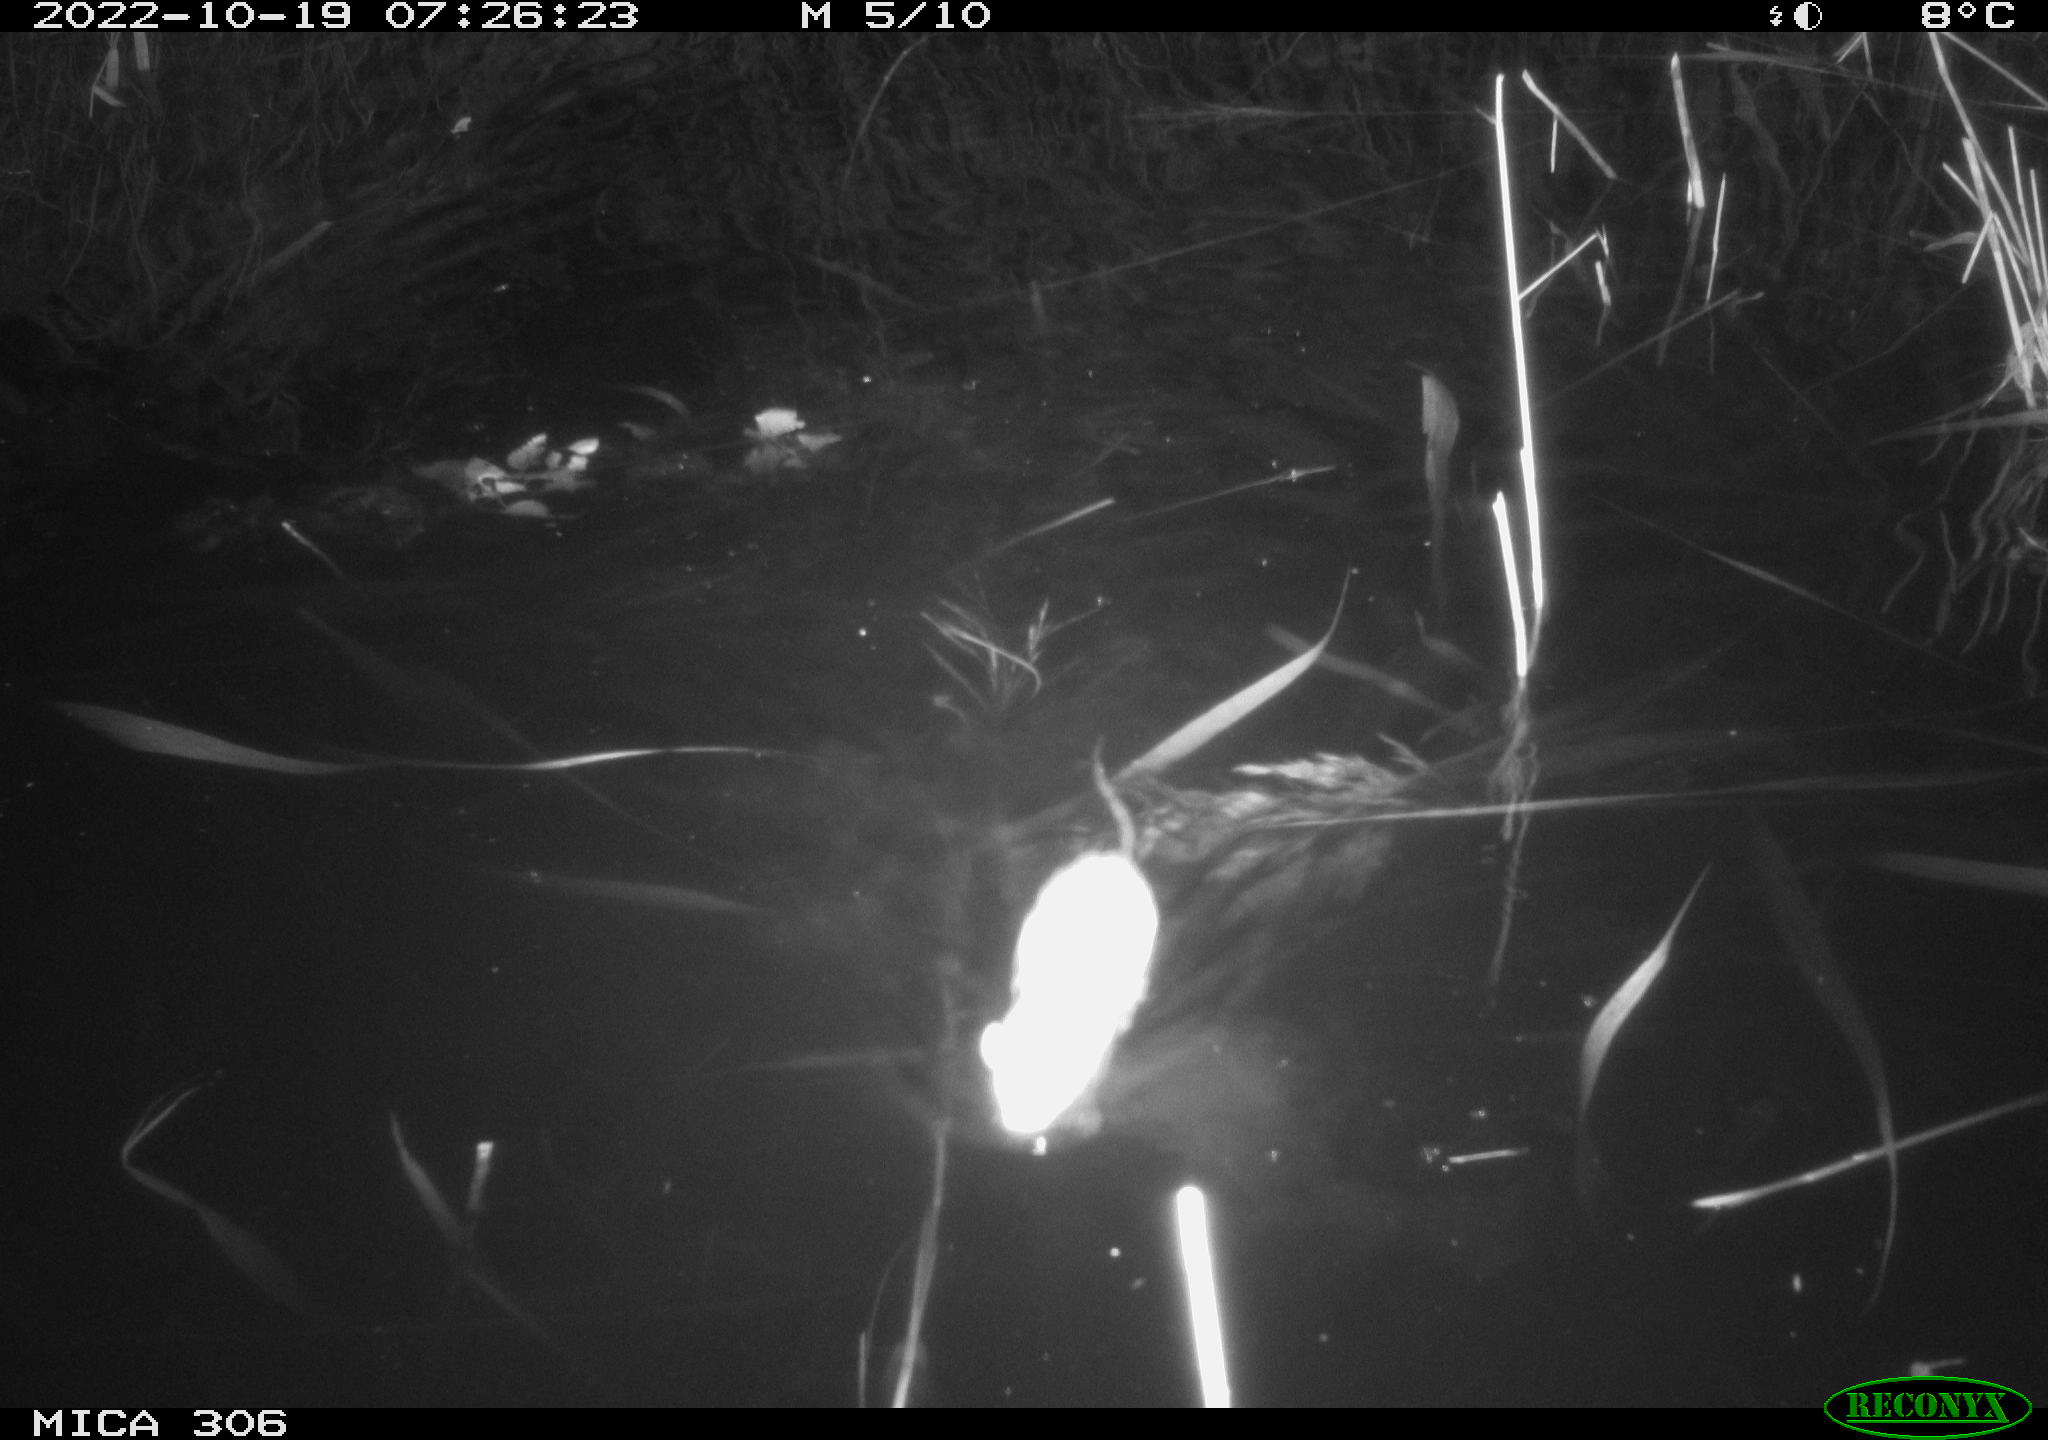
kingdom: Animalia
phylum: Chordata
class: Mammalia
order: Rodentia
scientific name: Rodentia
